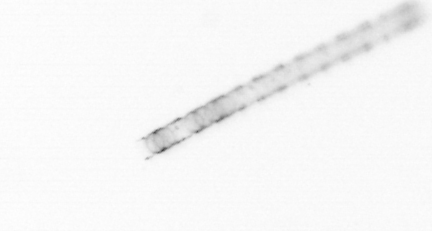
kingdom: Chromista
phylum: Ochrophyta
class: Bacillariophyceae
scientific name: Bacillariophyceae
